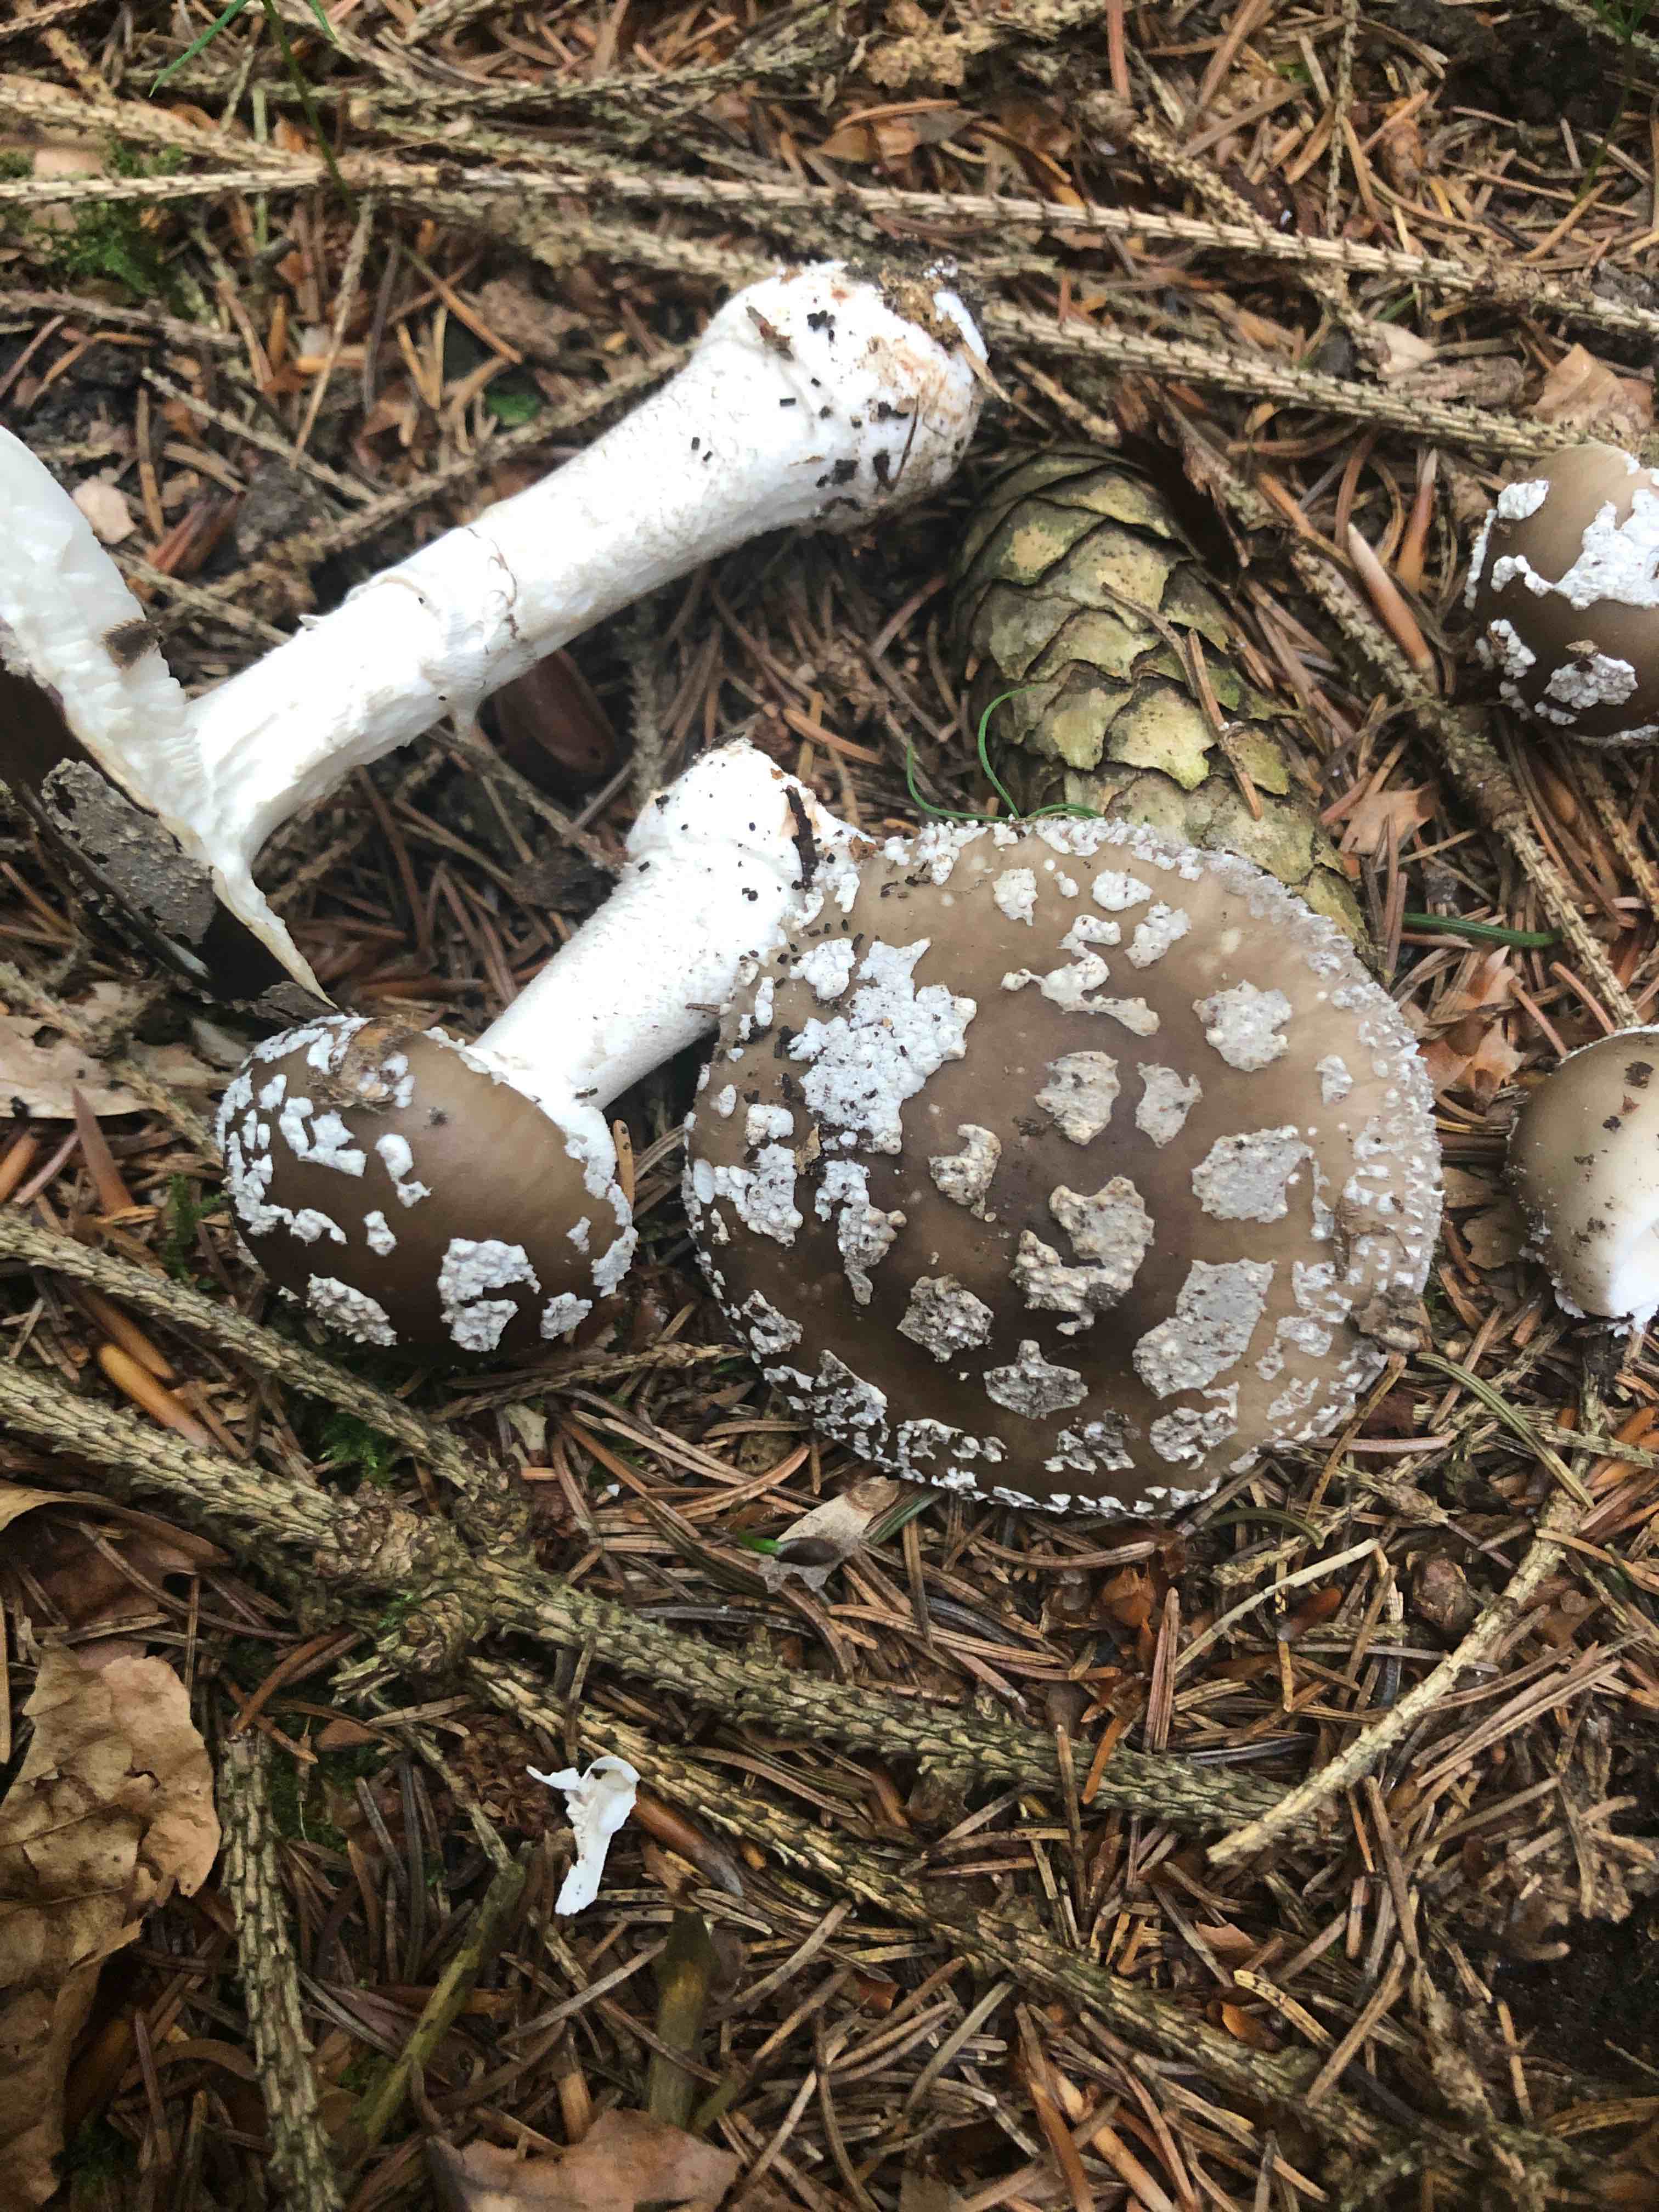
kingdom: Fungi
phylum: Basidiomycota
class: Agaricomycetes
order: Agaricales
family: Amanitaceae
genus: Amanita
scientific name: Amanita
